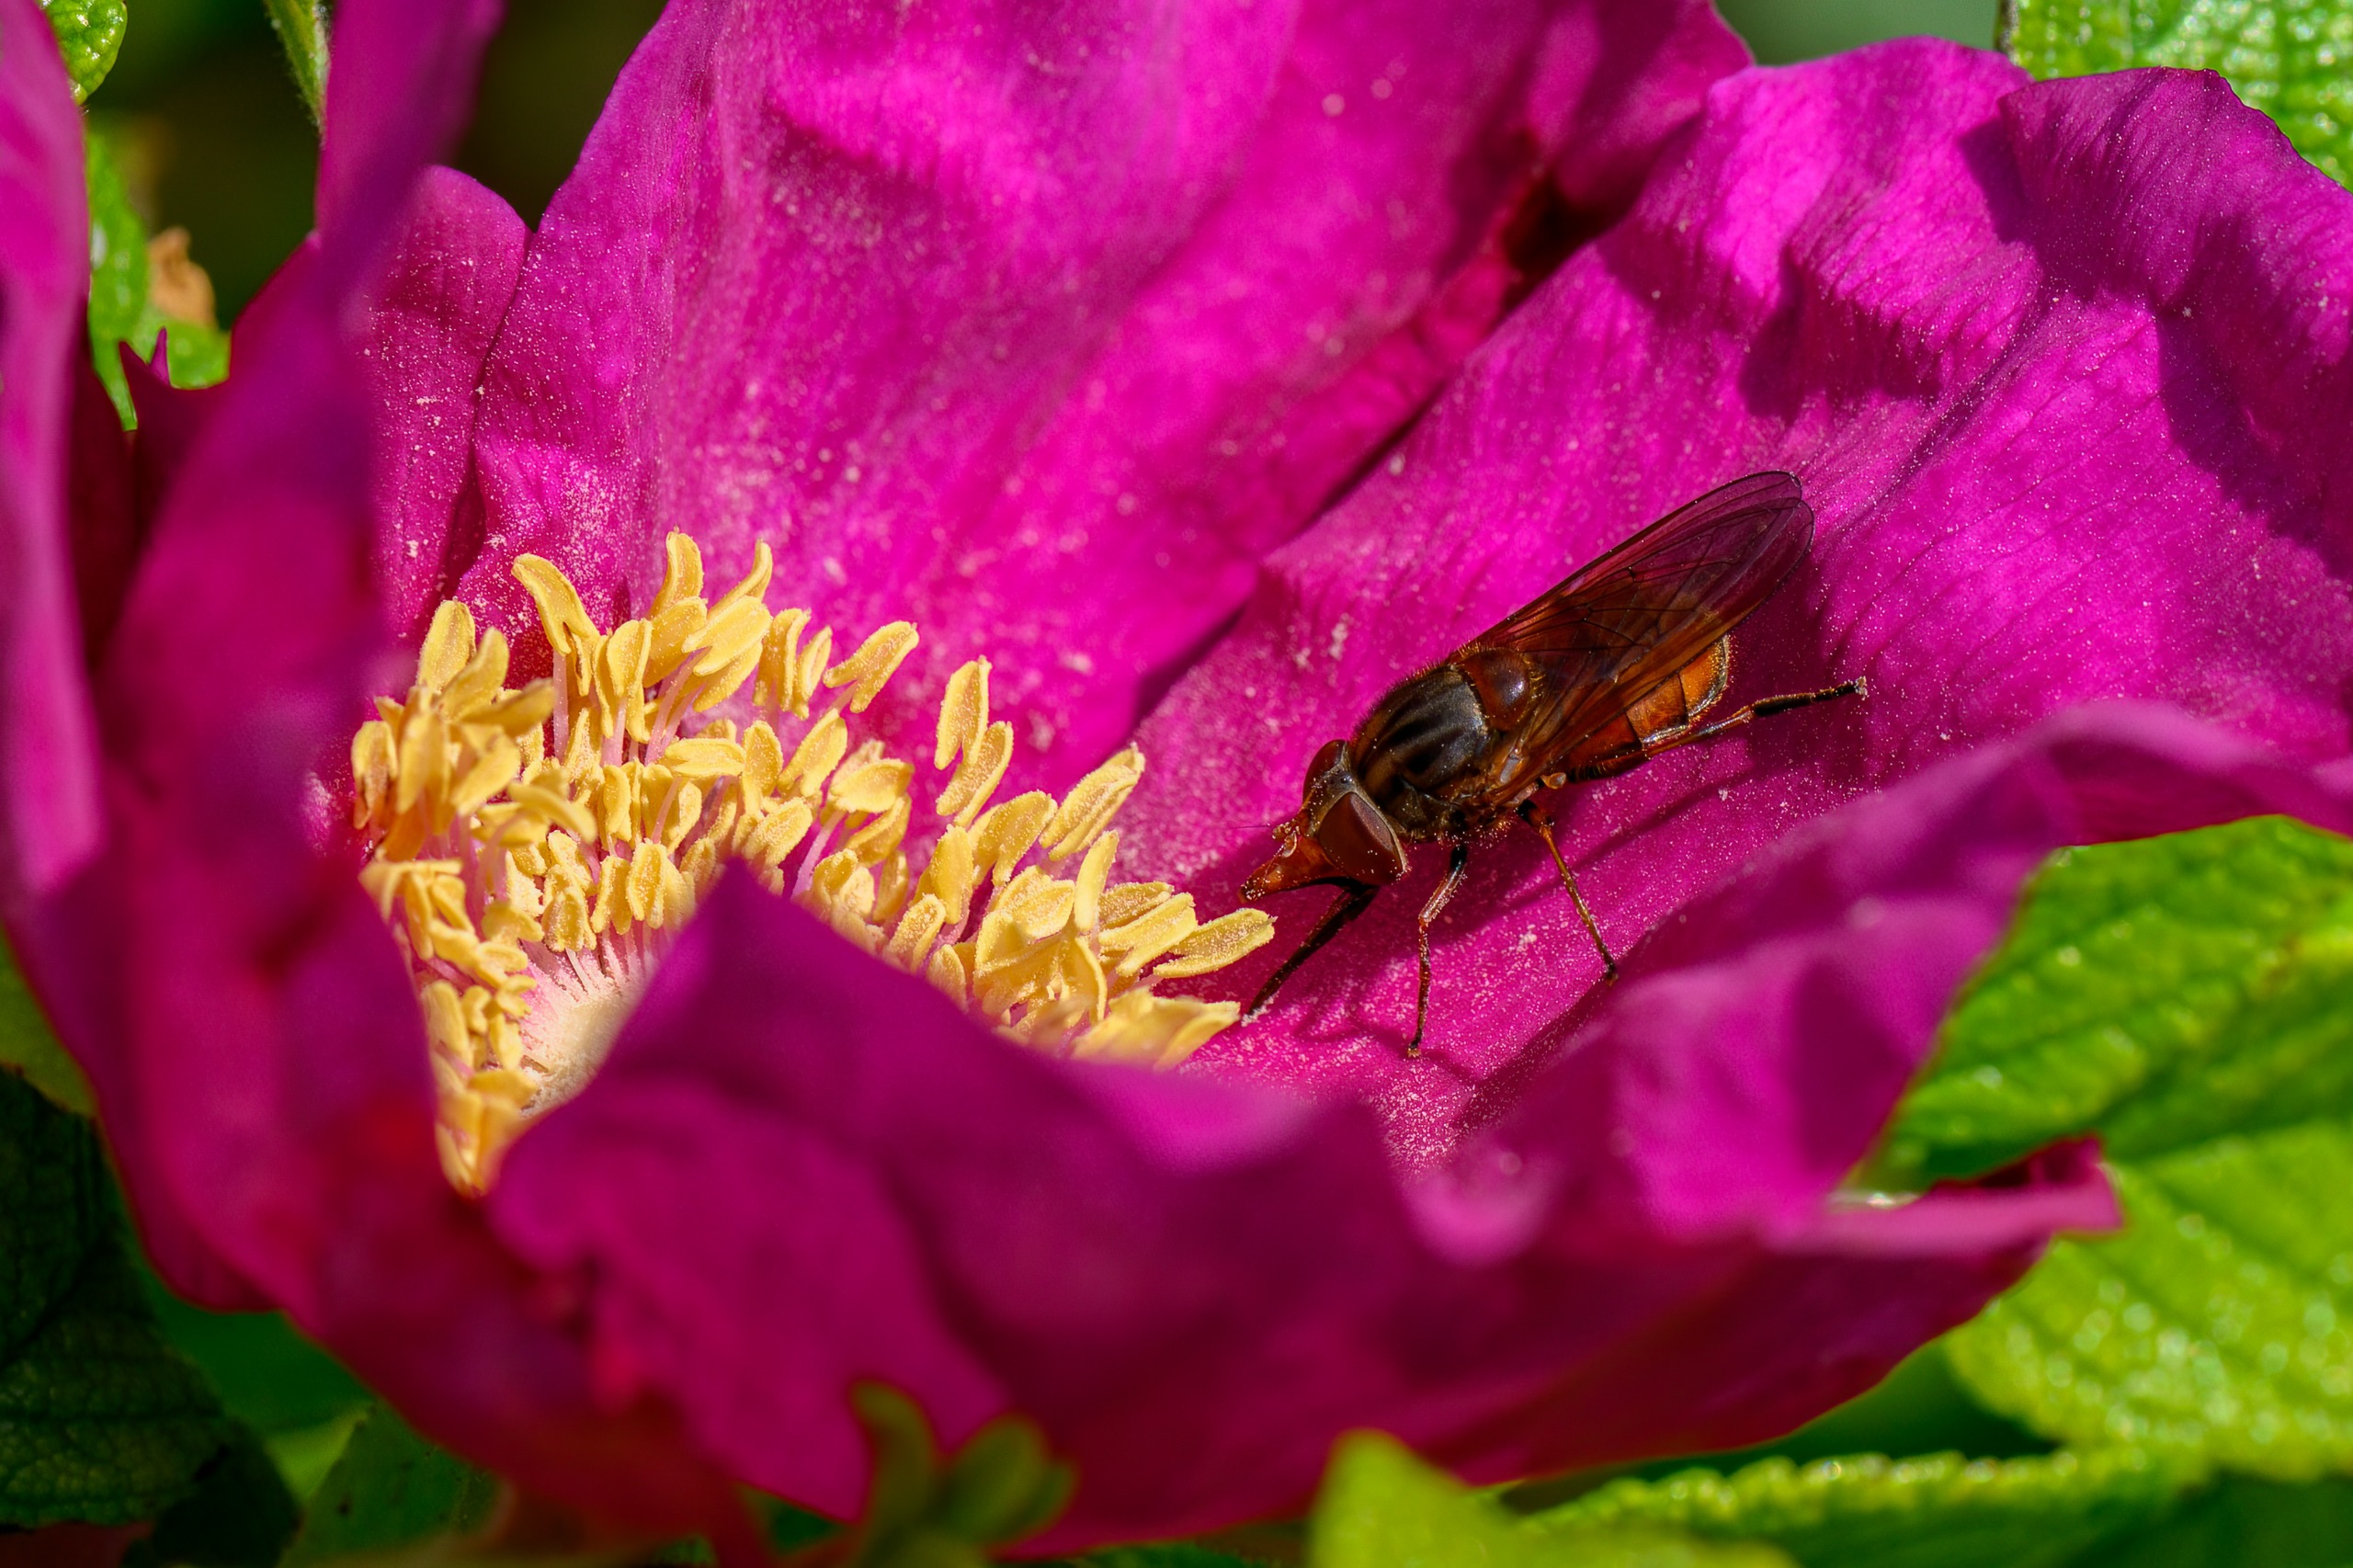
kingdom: Animalia
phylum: Arthropoda
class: Insecta
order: Diptera
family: Syrphidae
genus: Rhingia
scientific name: Rhingia campestris
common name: Mark-snabelsvirreflue
